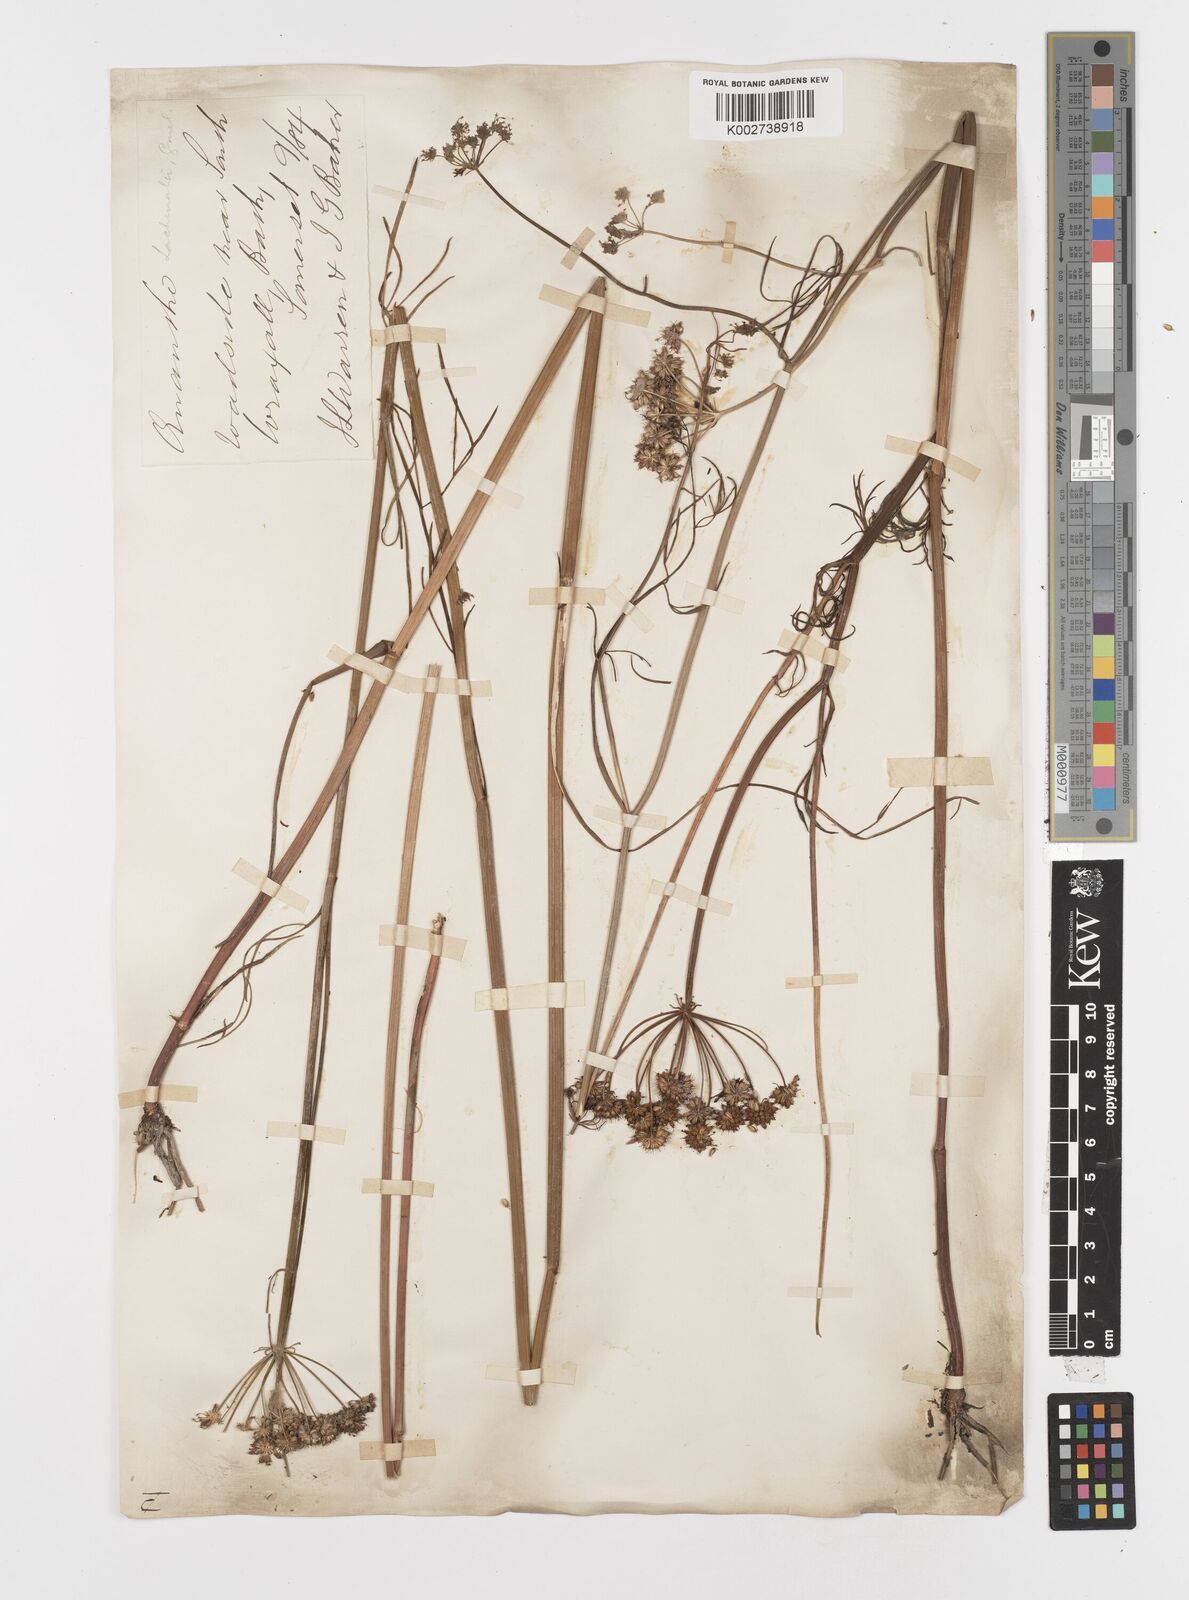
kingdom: Plantae
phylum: Tracheophyta
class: Magnoliopsida
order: Apiales
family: Apiaceae
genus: Oenanthe
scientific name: Oenanthe lachenalii
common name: Parsley water-dropwort
